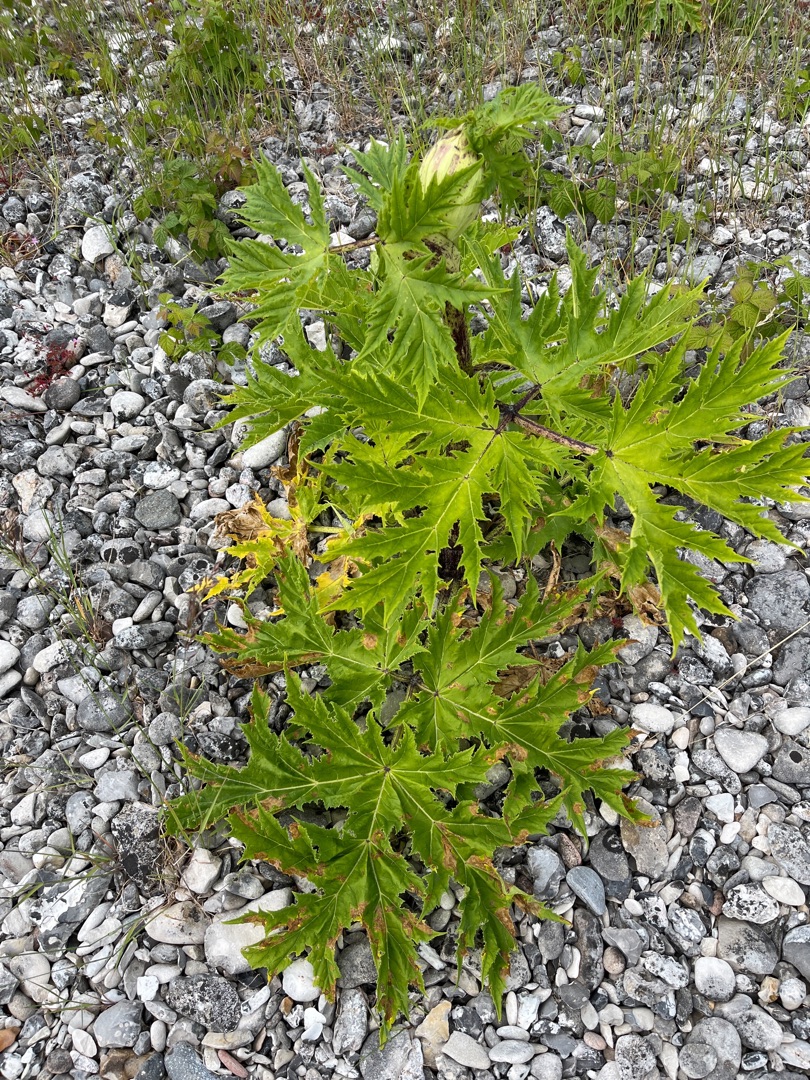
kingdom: Plantae
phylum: Tracheophyta
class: Magnoliopsida
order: Apiales
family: Apiaceae
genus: Heracleum
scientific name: Heracleum mantegazzianum
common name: Kæmpe-bjørneklo
